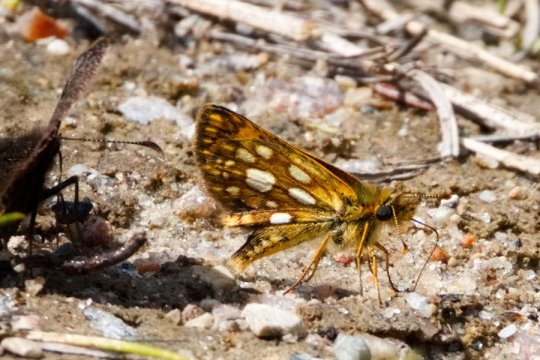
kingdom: Animalia
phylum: Arthropoda
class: Insecta
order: Lepidoptera
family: Hesperiidae
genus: Carterocephalus
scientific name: Carterocephalus mandan
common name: Arctic Skipperling
